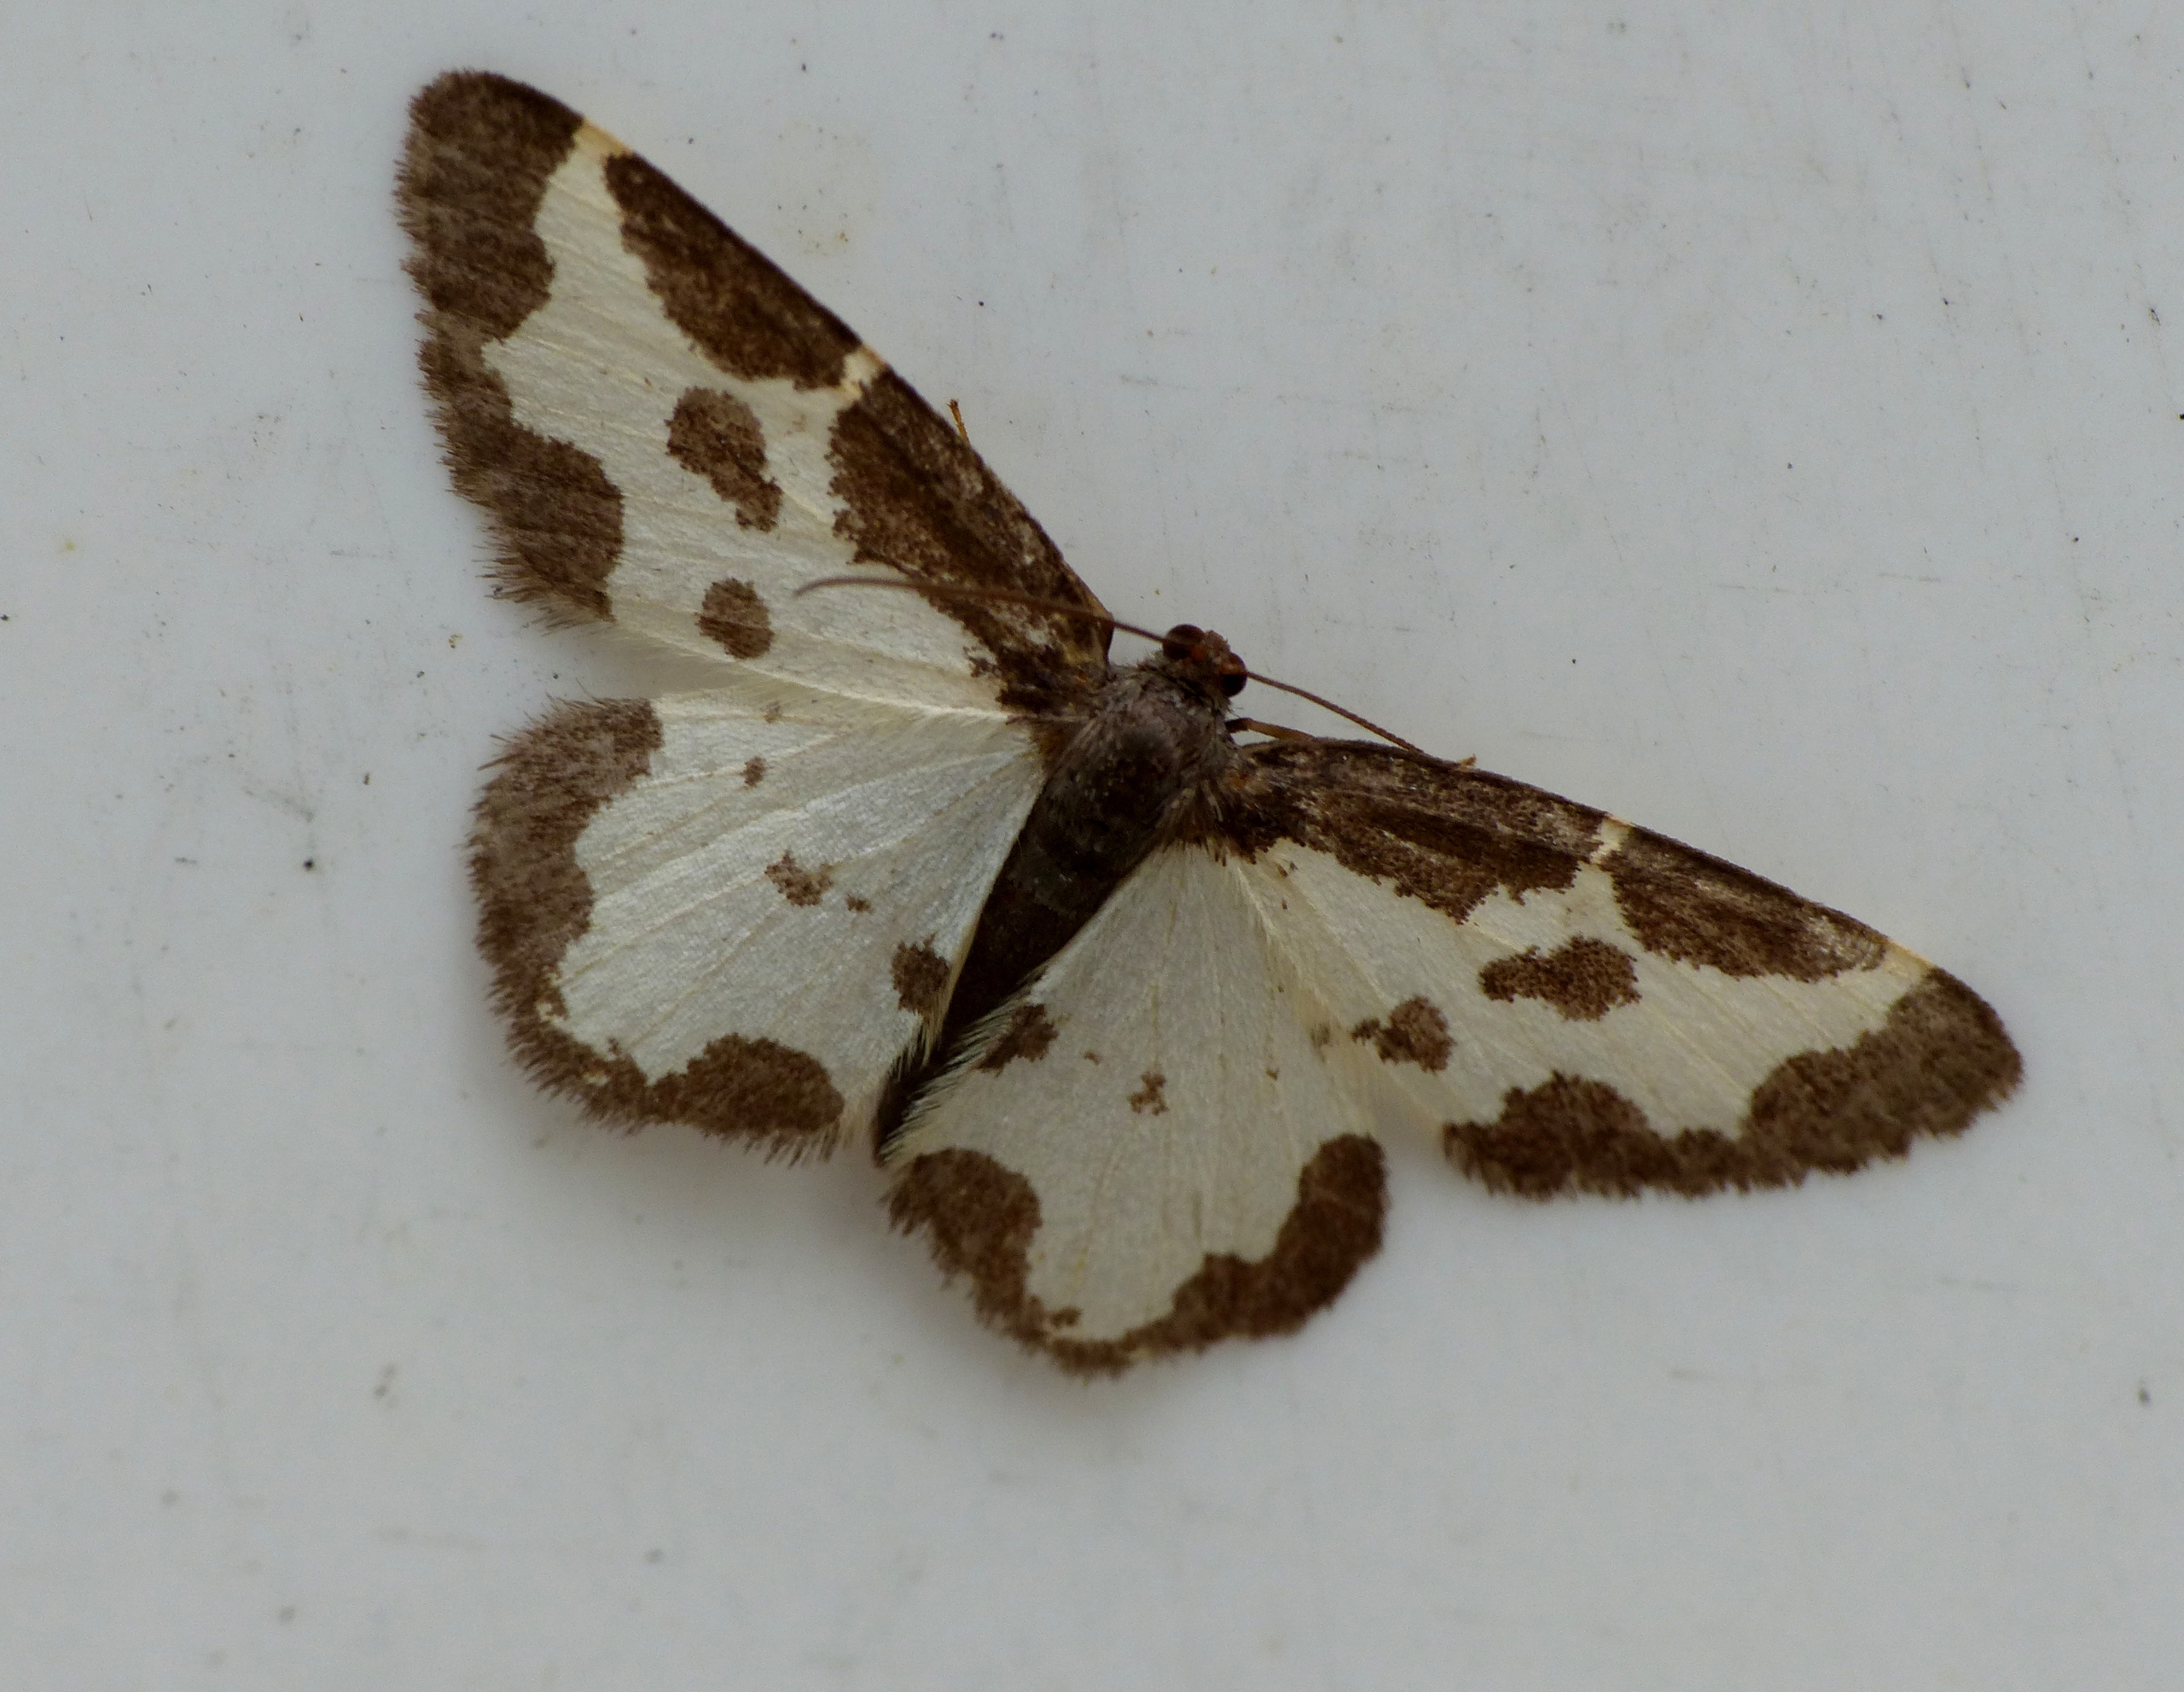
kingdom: Animalia
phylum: Arthropoda
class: Insecta
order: Lepidoptera
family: Geometridae
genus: Lomaspilis
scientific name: Lomaspilis marginata
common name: Sortrandet måler
